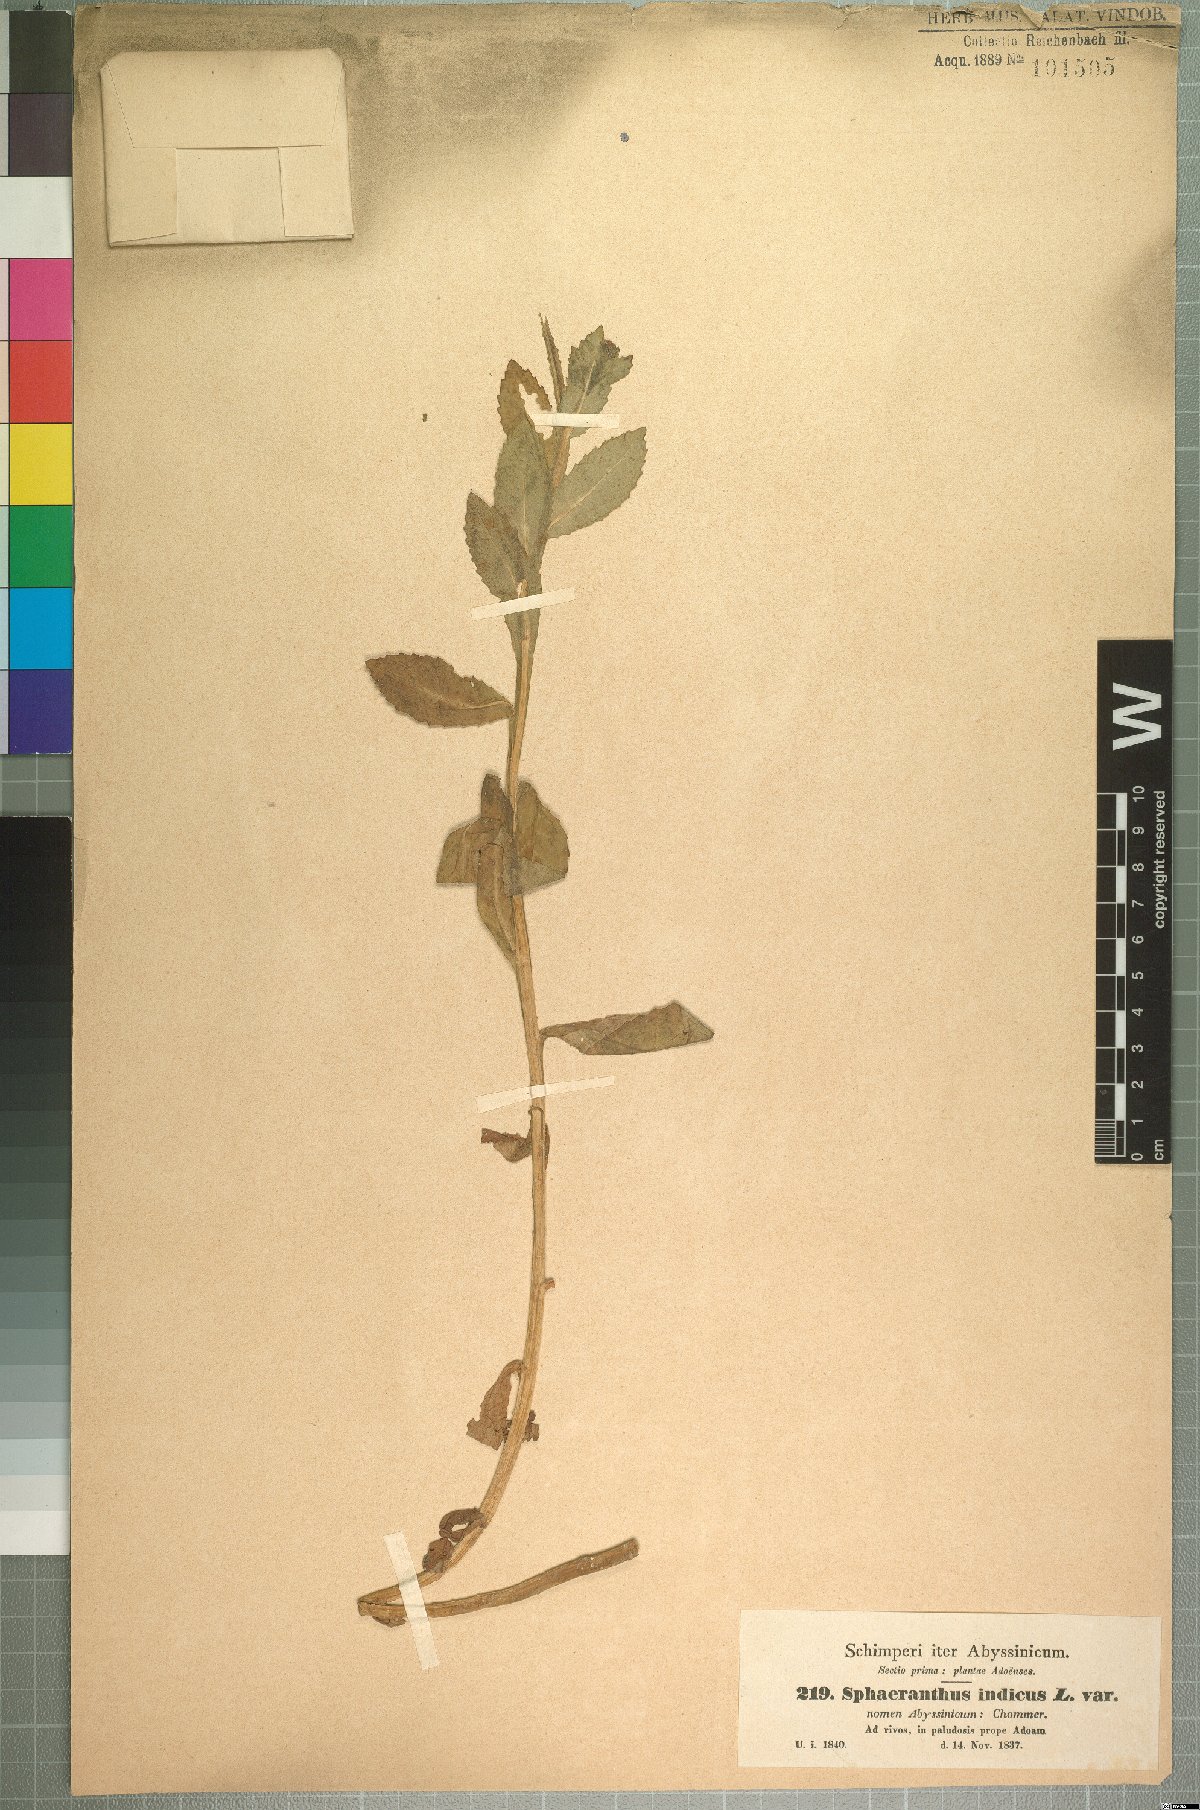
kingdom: Plantae
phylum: Tracheophyta
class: Magnoliopsida
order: Asterales
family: Asteraceae
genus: Sphaeranthus
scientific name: Sphaeranthus suaveolens
